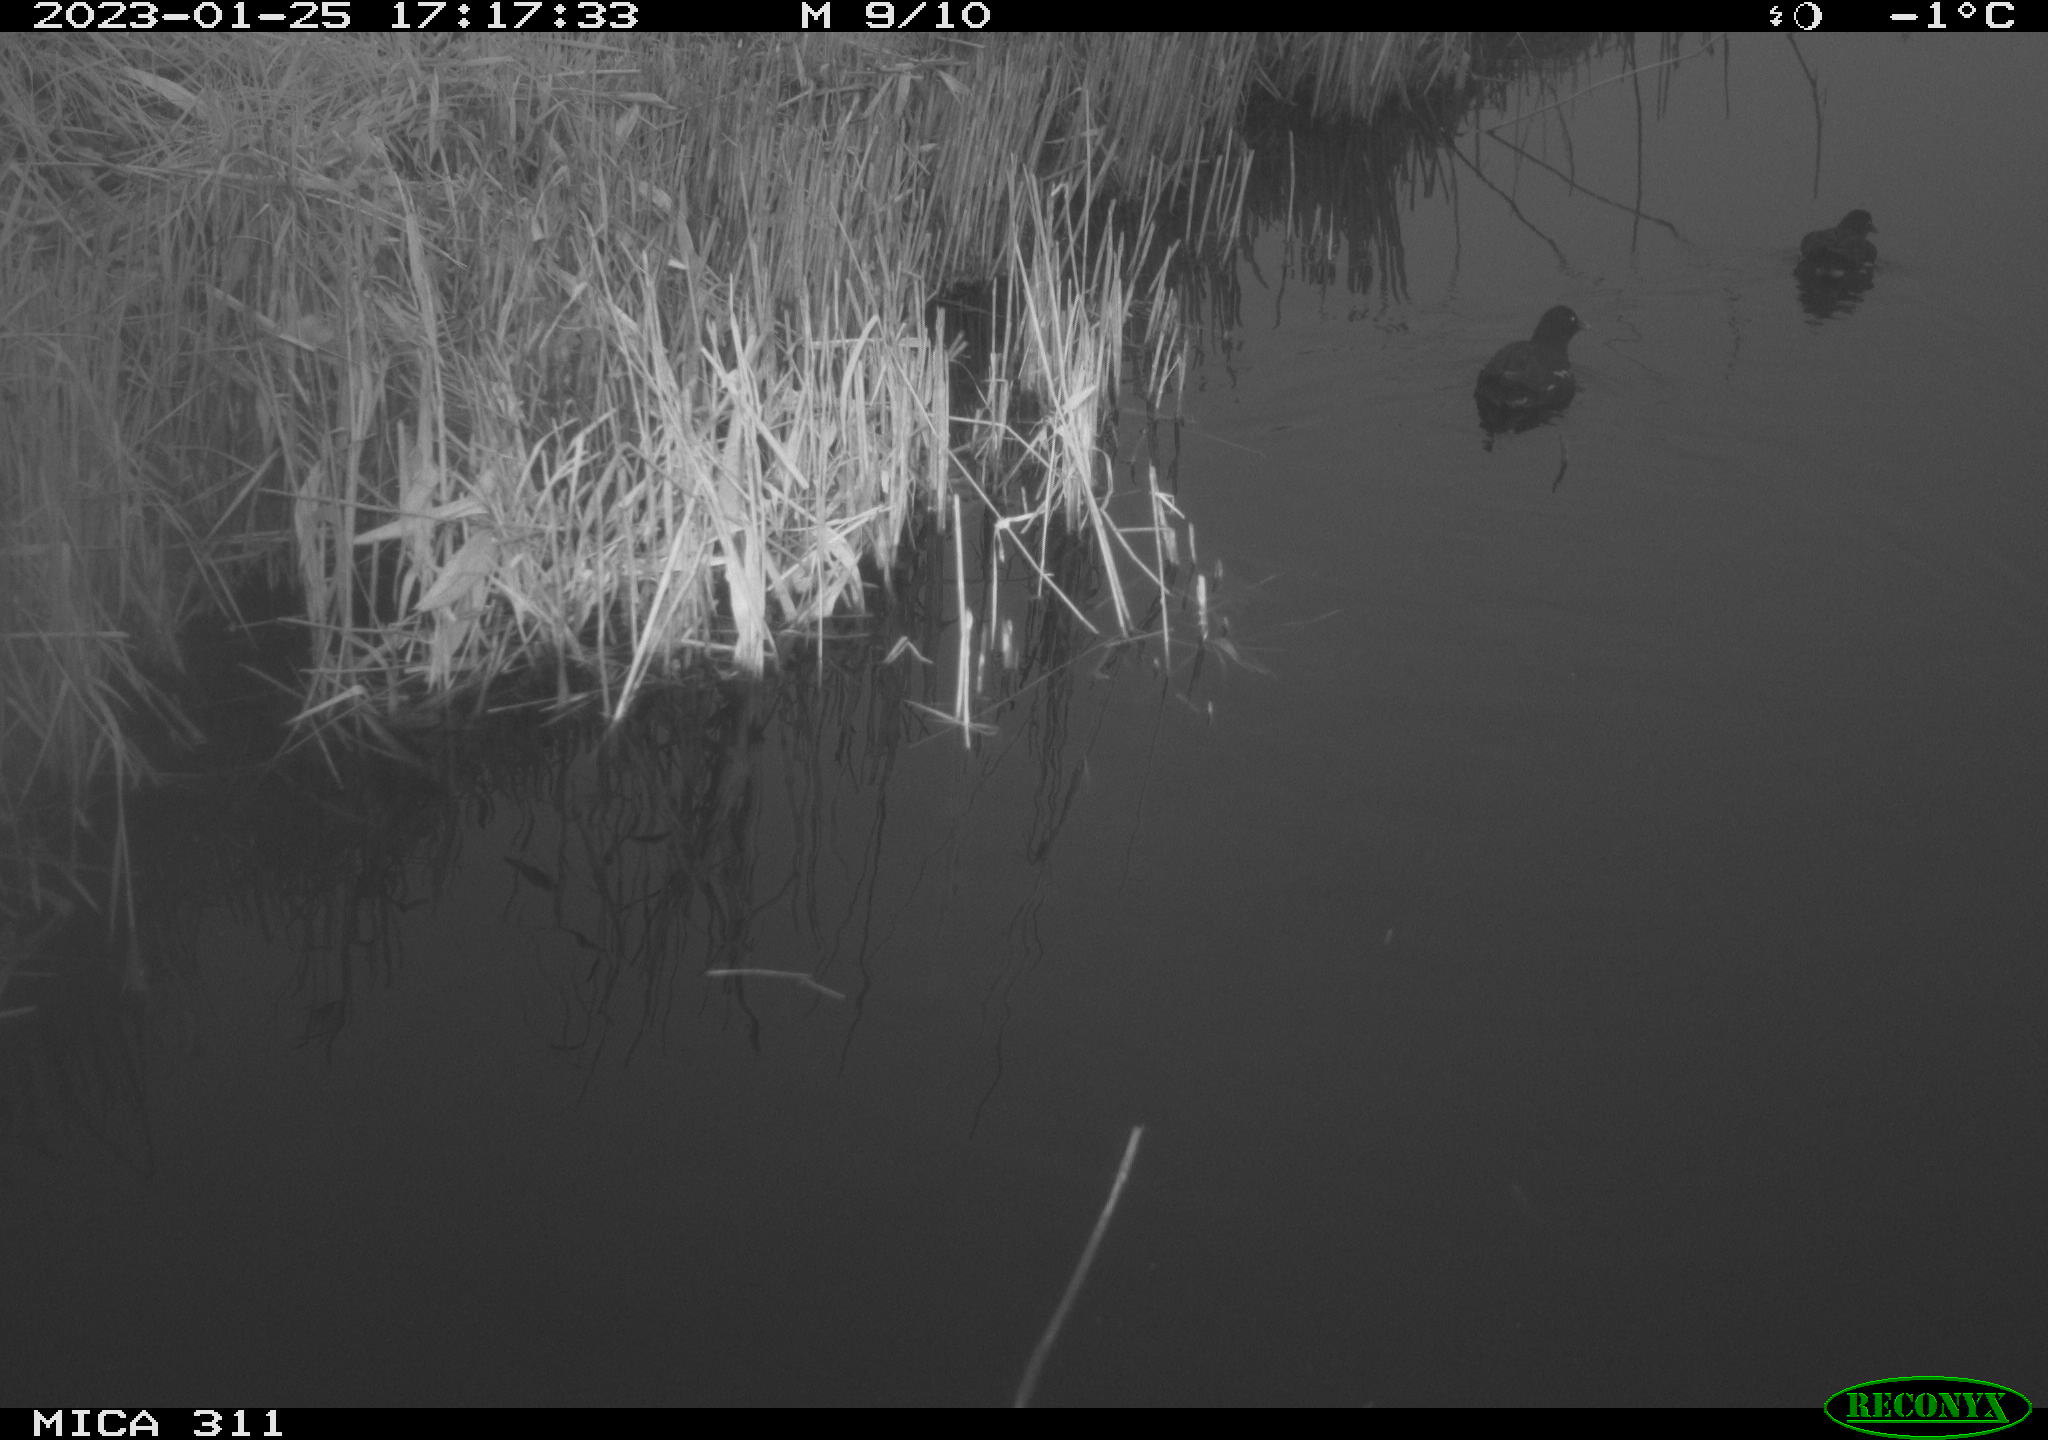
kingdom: Animalia
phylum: Chordata
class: Aves
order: Gruiformes
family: Rallidae
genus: Gallinula
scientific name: Gallinula chloropus
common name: Common moorhen
